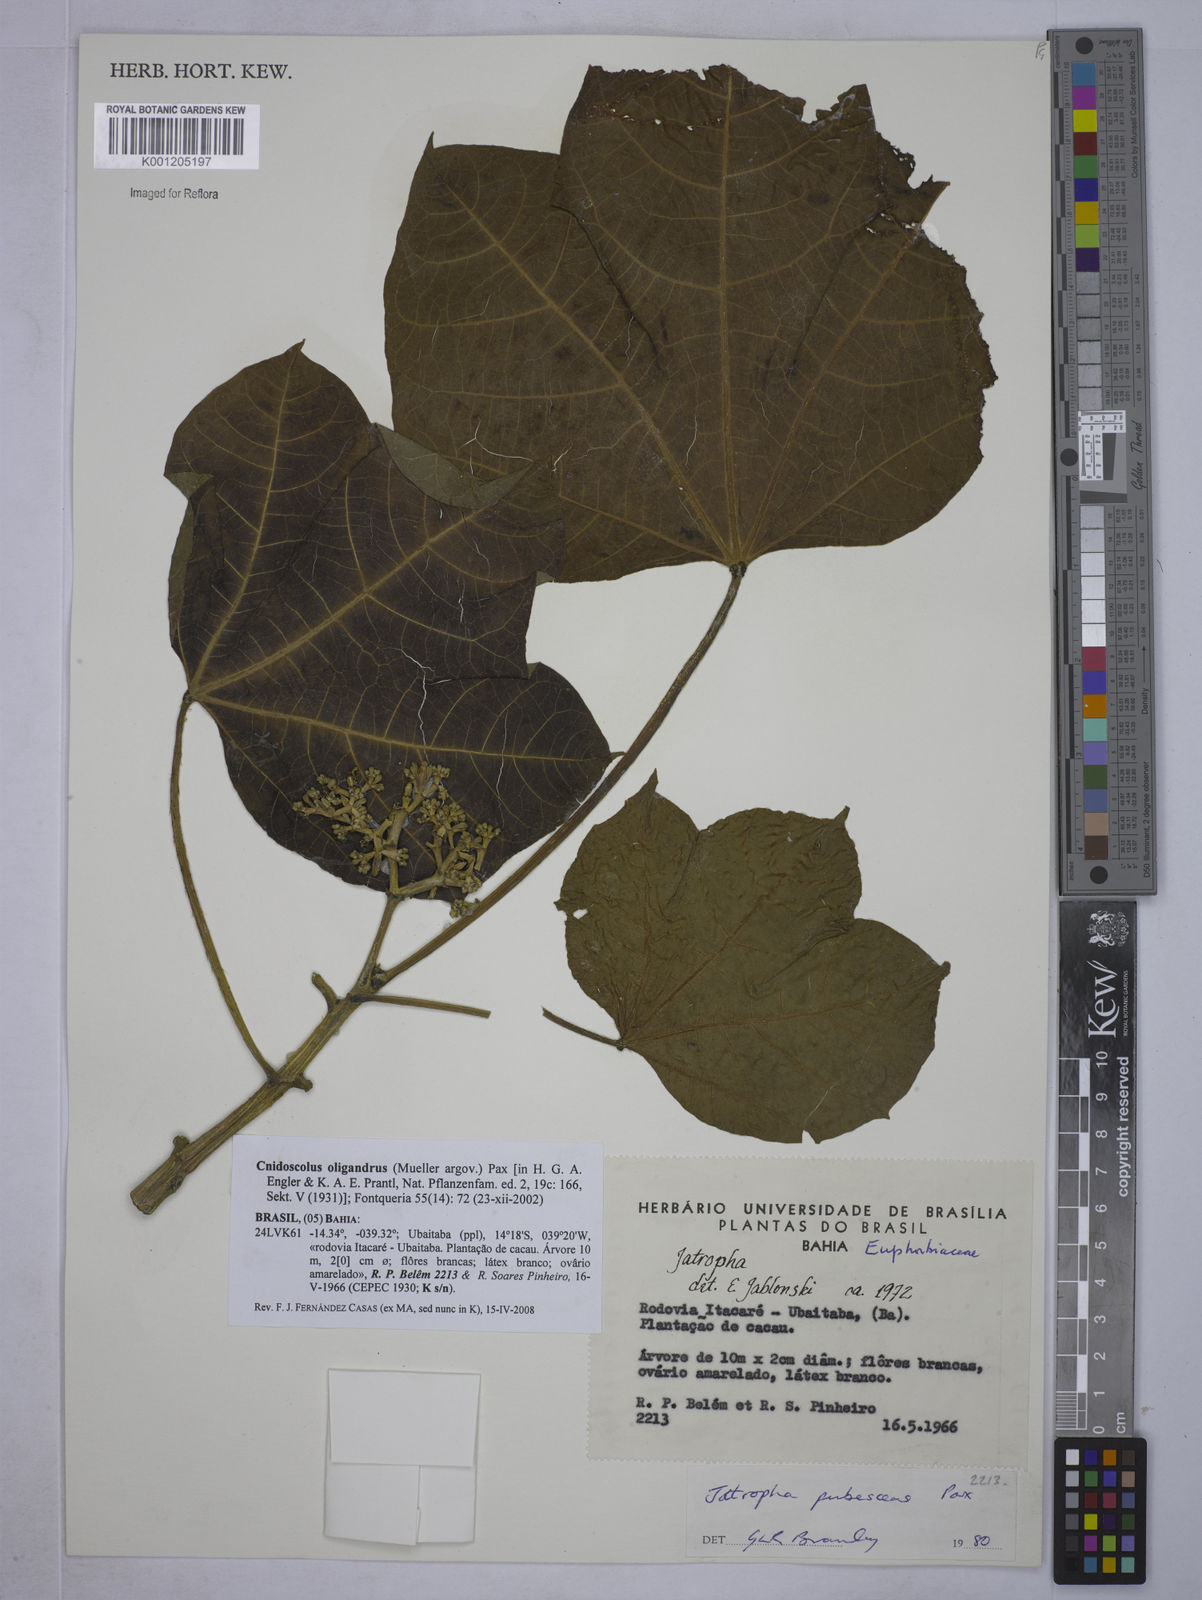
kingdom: Plantae
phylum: Tracheophyta
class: Magnoliopsida
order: Malpighiales
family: Euphorbiaceae
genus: Cnidoscolus
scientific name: Cnidoscolus
